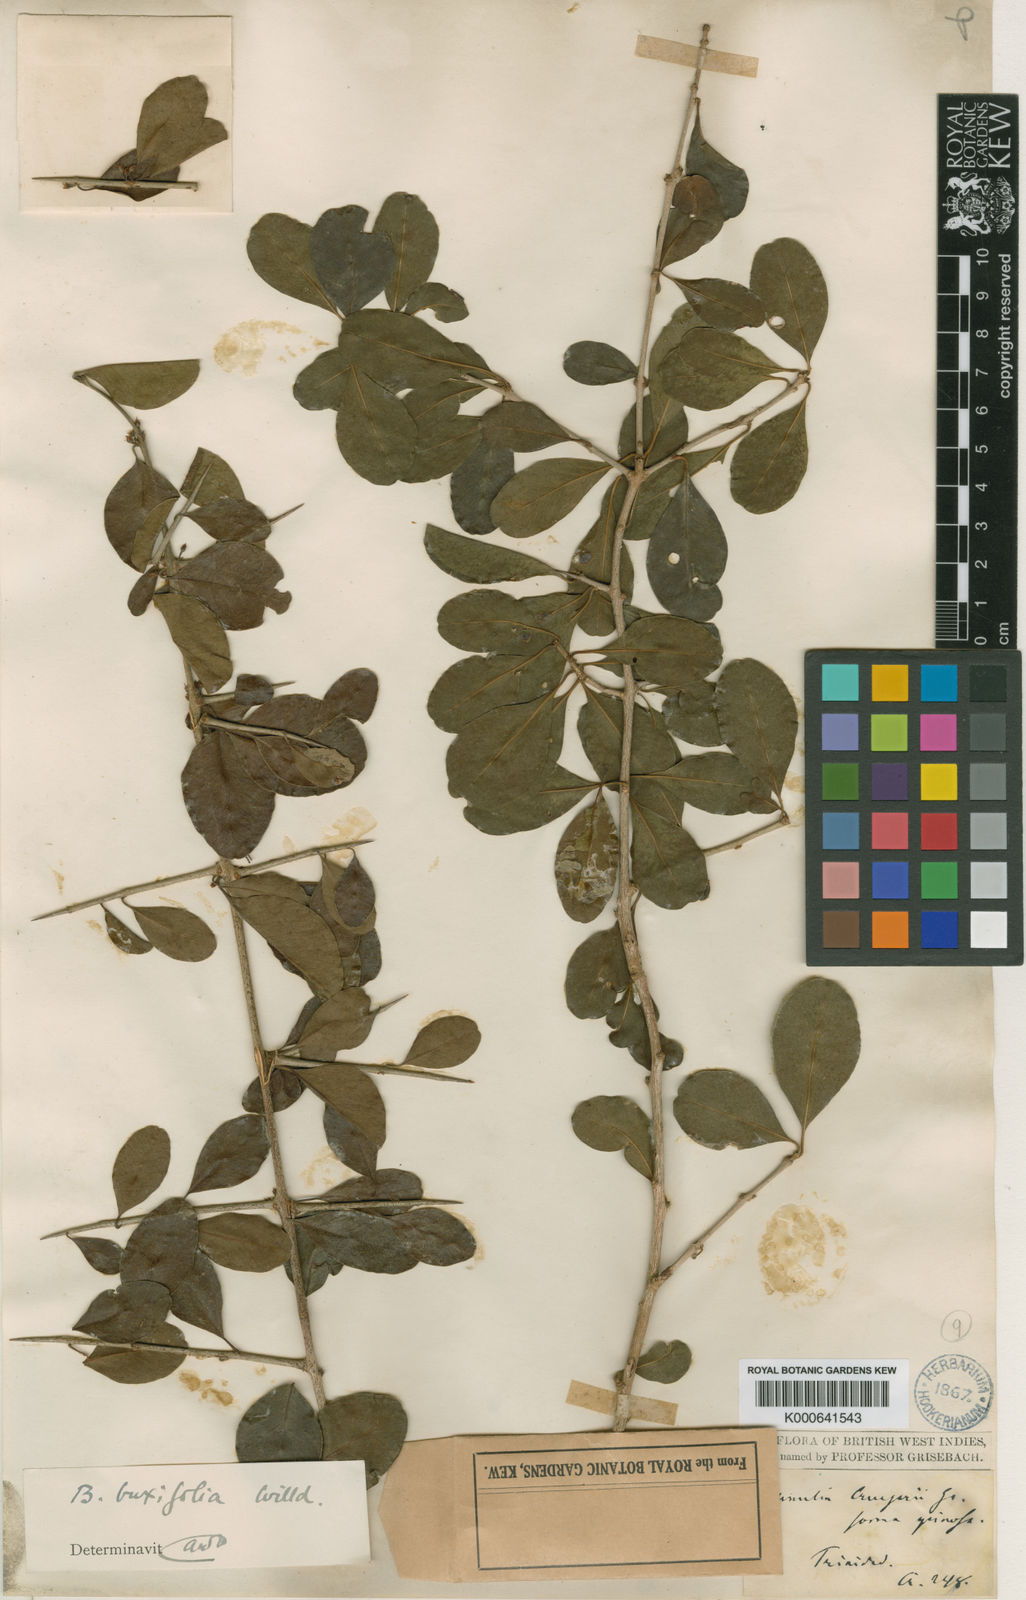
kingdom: Plantae
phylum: Tracheophyta
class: Magnoliopsida
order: Ericales
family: Sapotaceae
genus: Sideroxylon
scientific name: Sideroxylon obtusifolium
